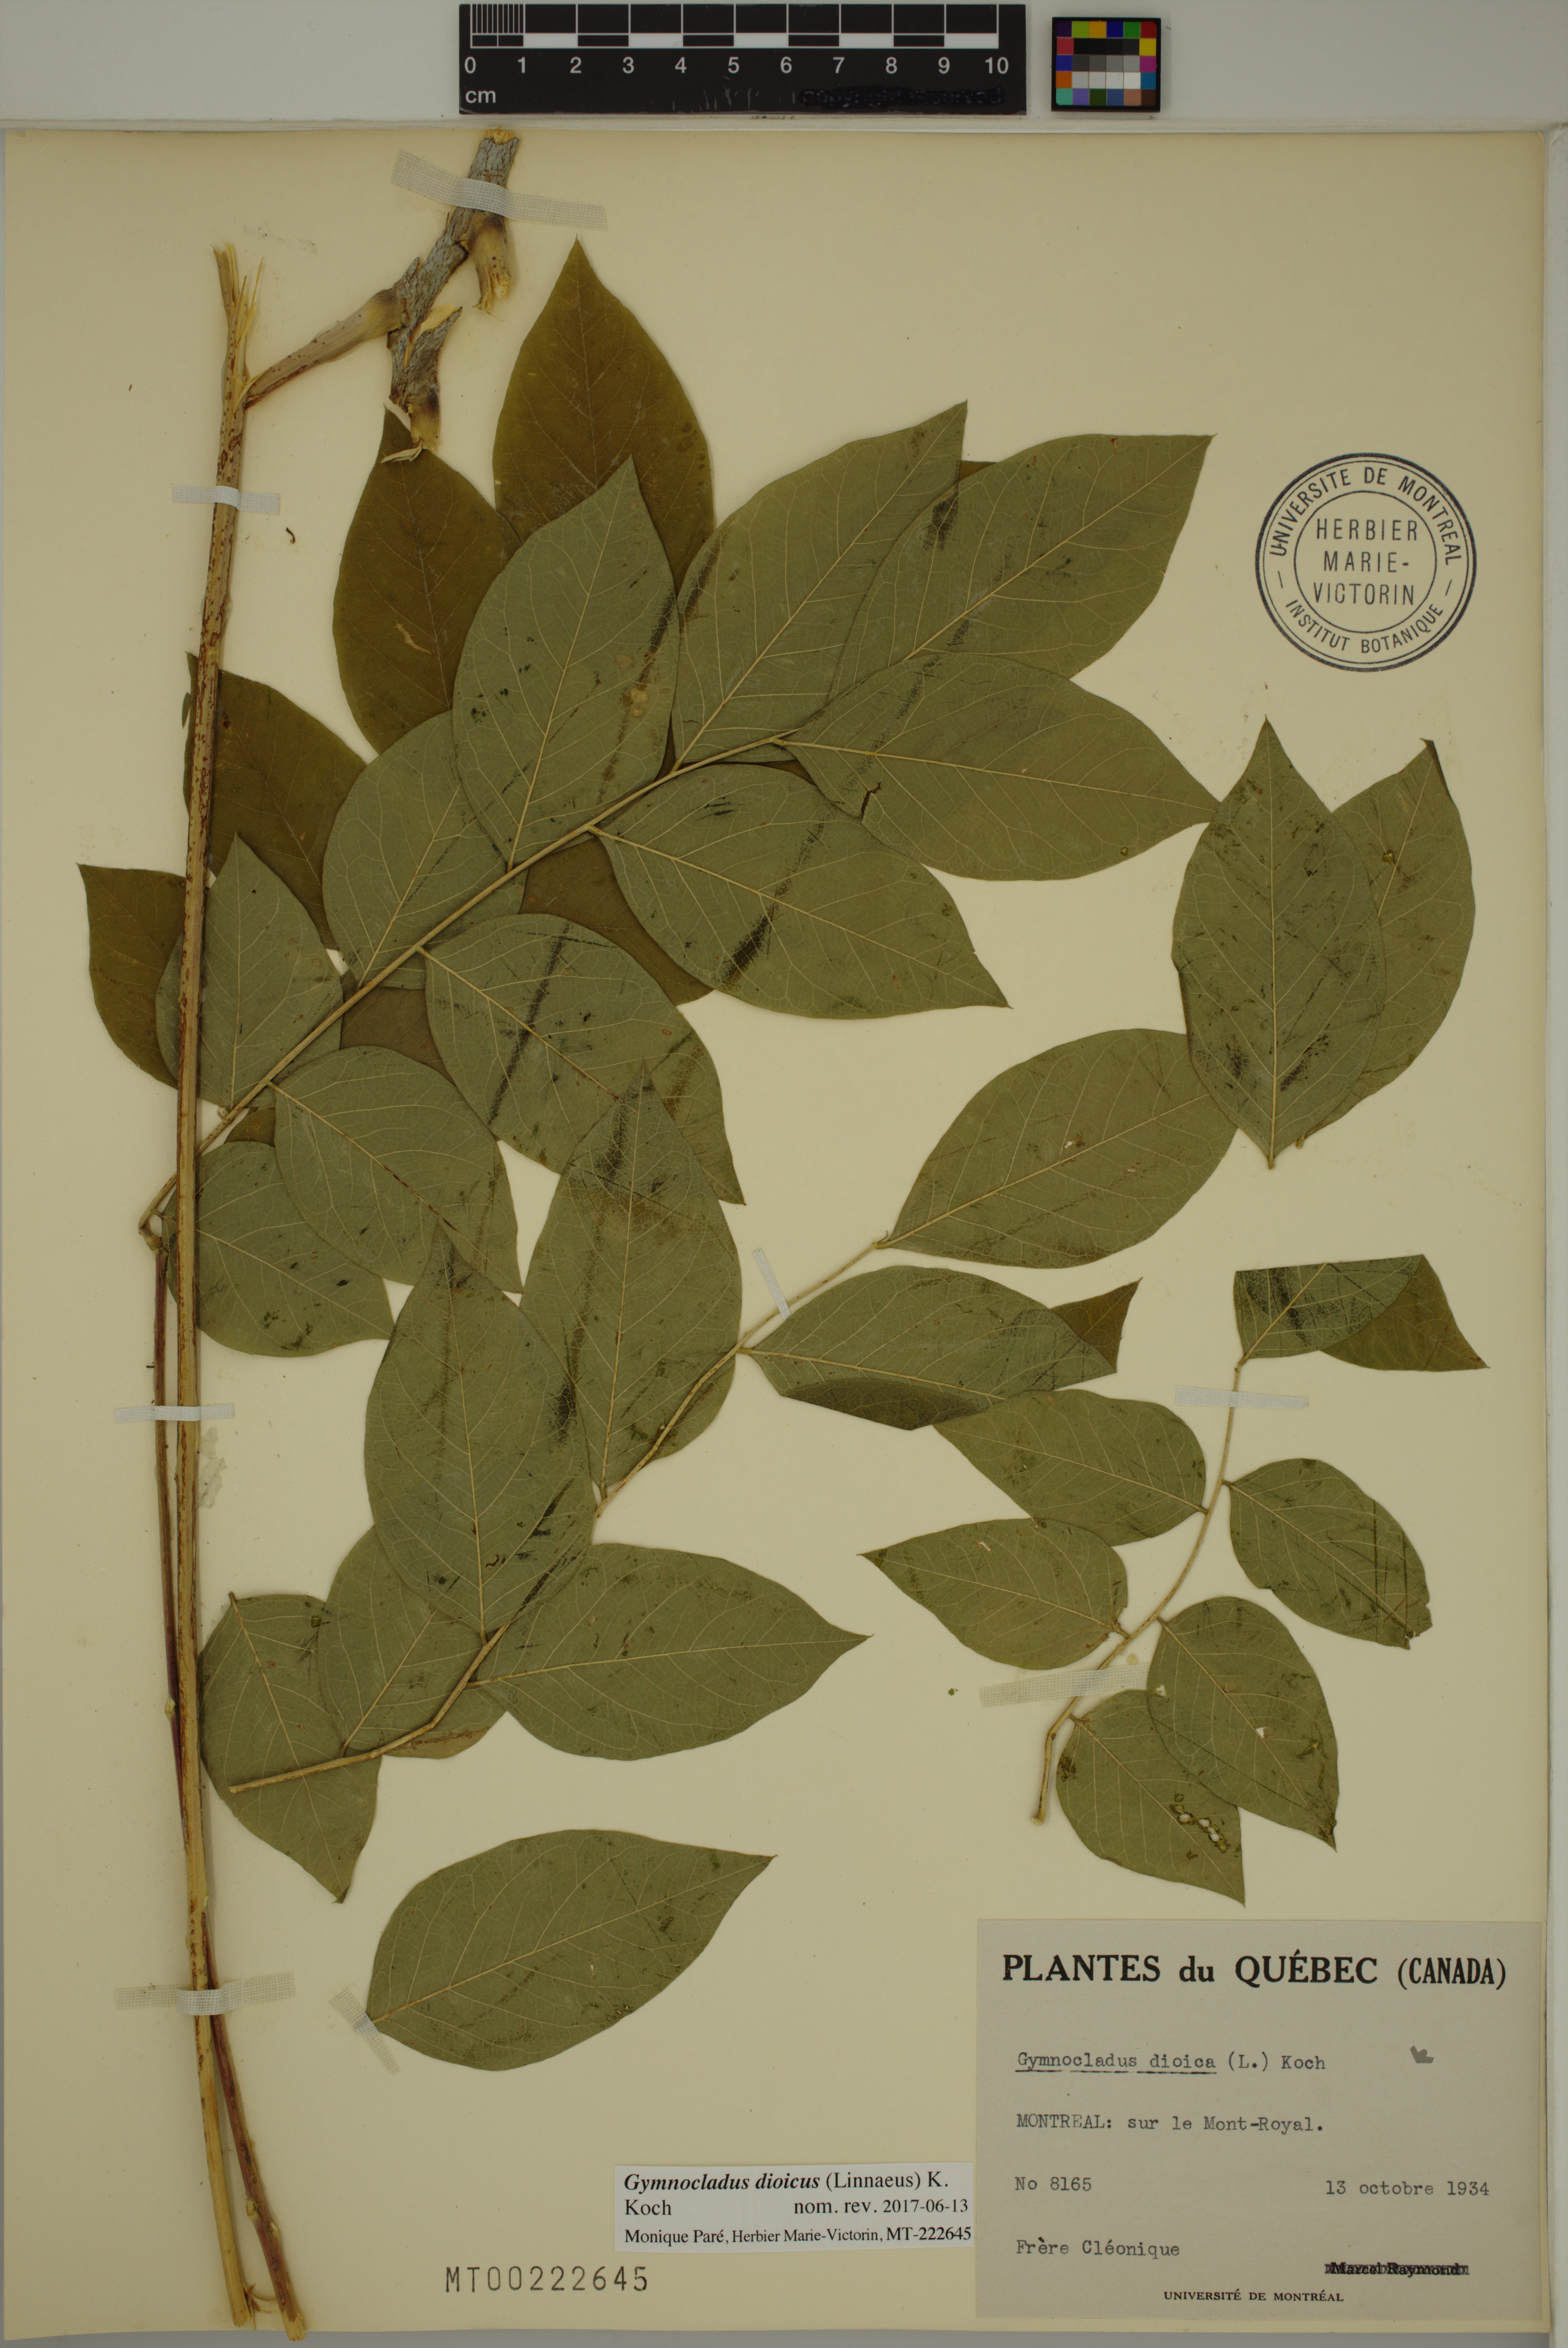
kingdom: Plantae
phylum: Tracheophyta
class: Magnoliopsida
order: Fabales
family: Fabaceae
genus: Gymnocladus
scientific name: Gymnocladus dioicus
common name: Kentucky coffee-tree
